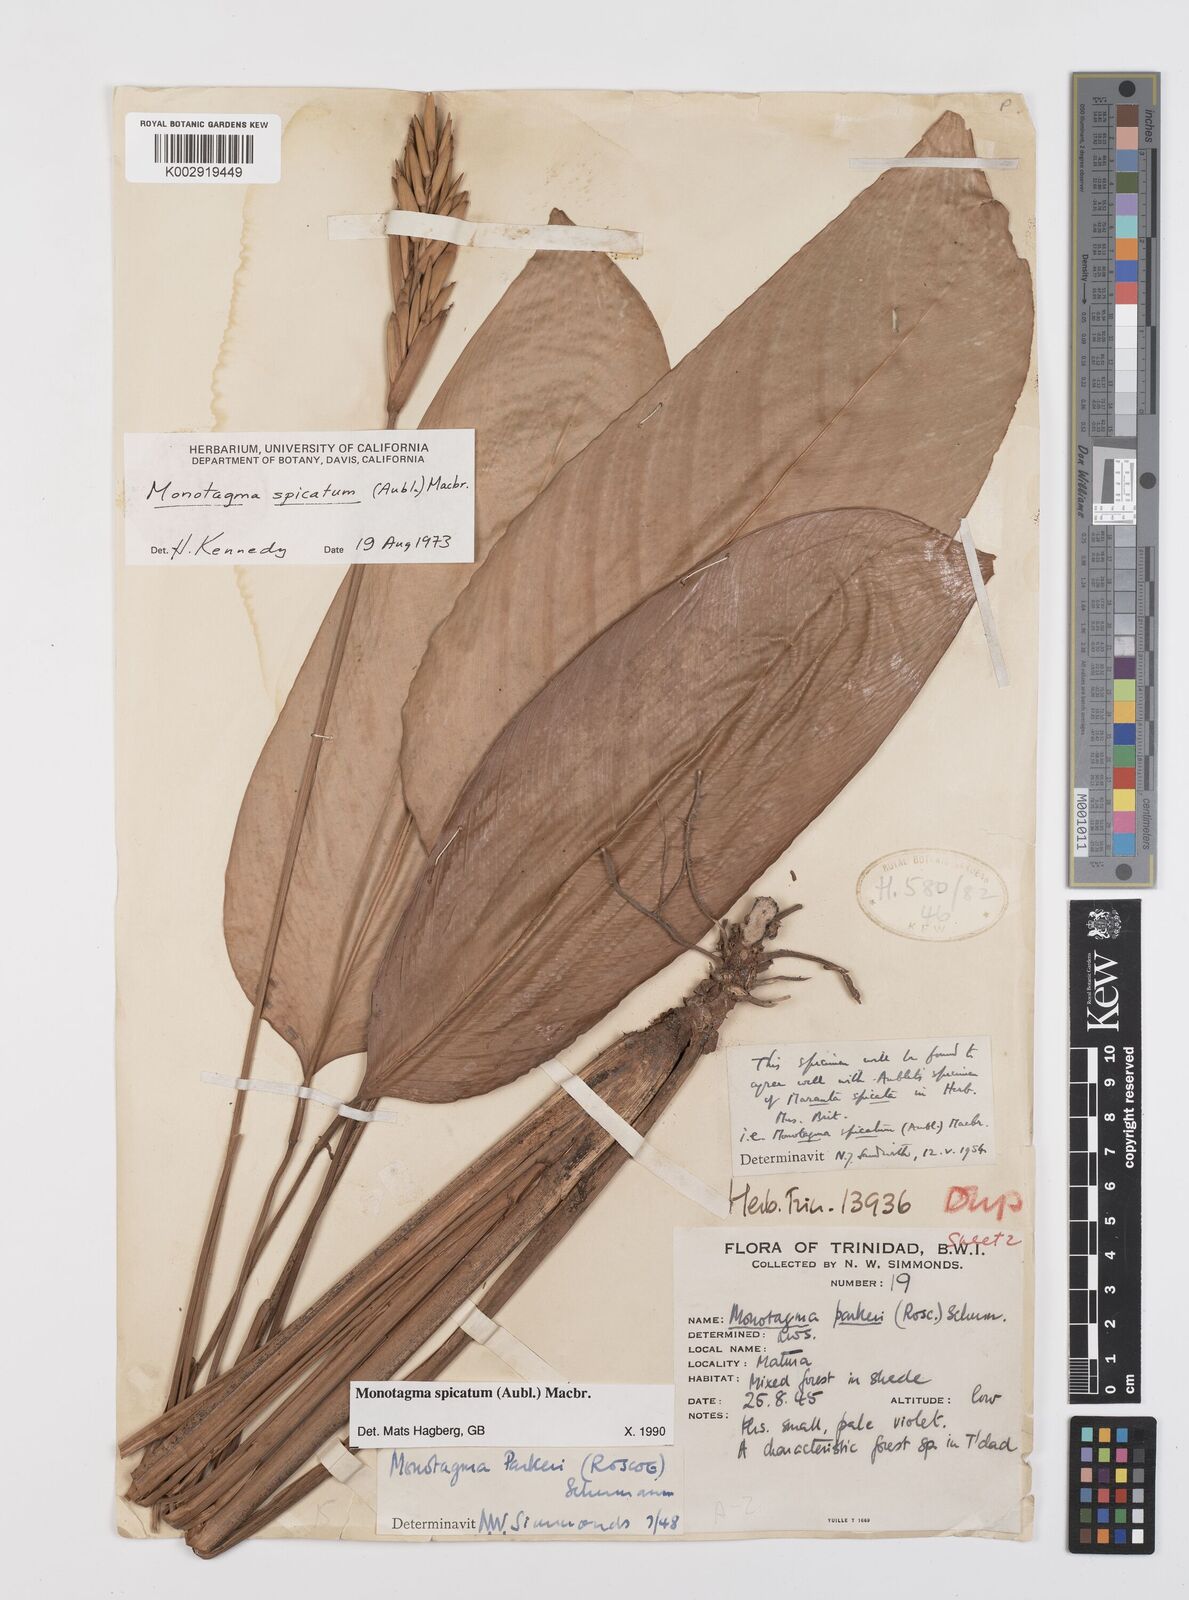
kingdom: Plantae
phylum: Tracheophyta
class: Liliopsida
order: Zingiberales
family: Marantaceae
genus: Monotagma
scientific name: Monotagma spicatum
